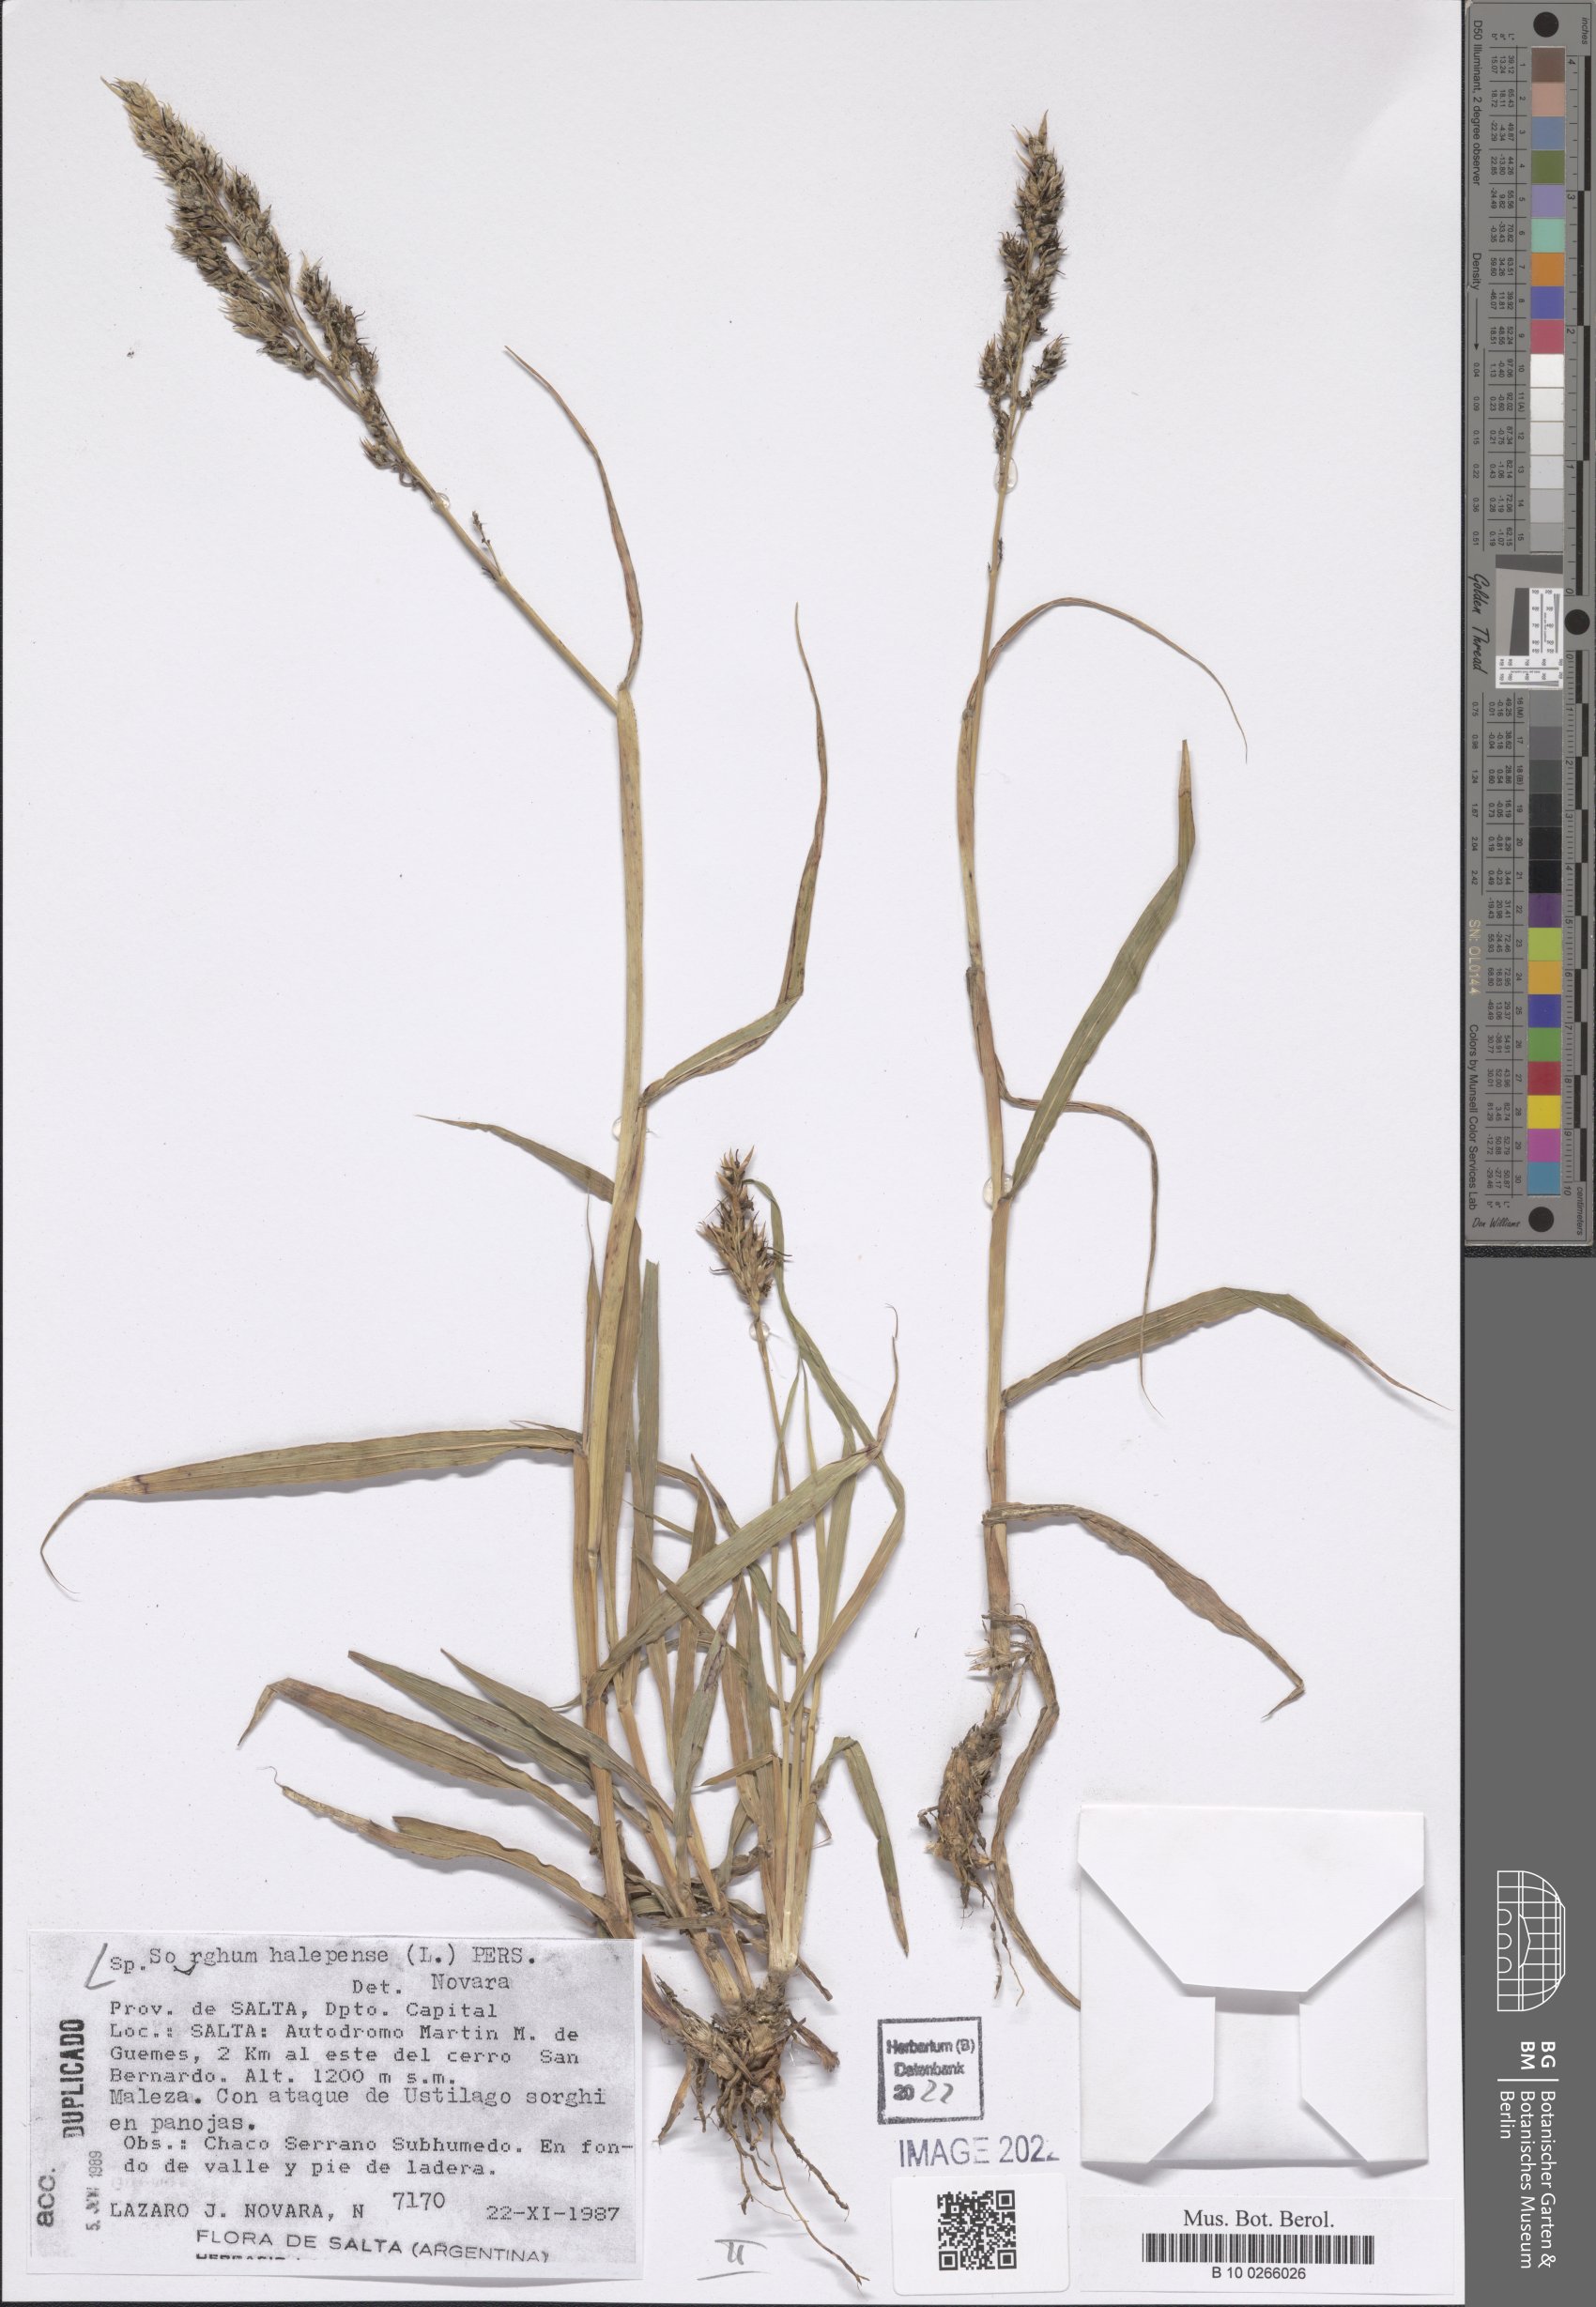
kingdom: Plantae
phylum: Tracheophyta
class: Liliopsida
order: Poales
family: Poaceae
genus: Sorghum
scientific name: Sorghum halepense
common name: Johnson-grass
